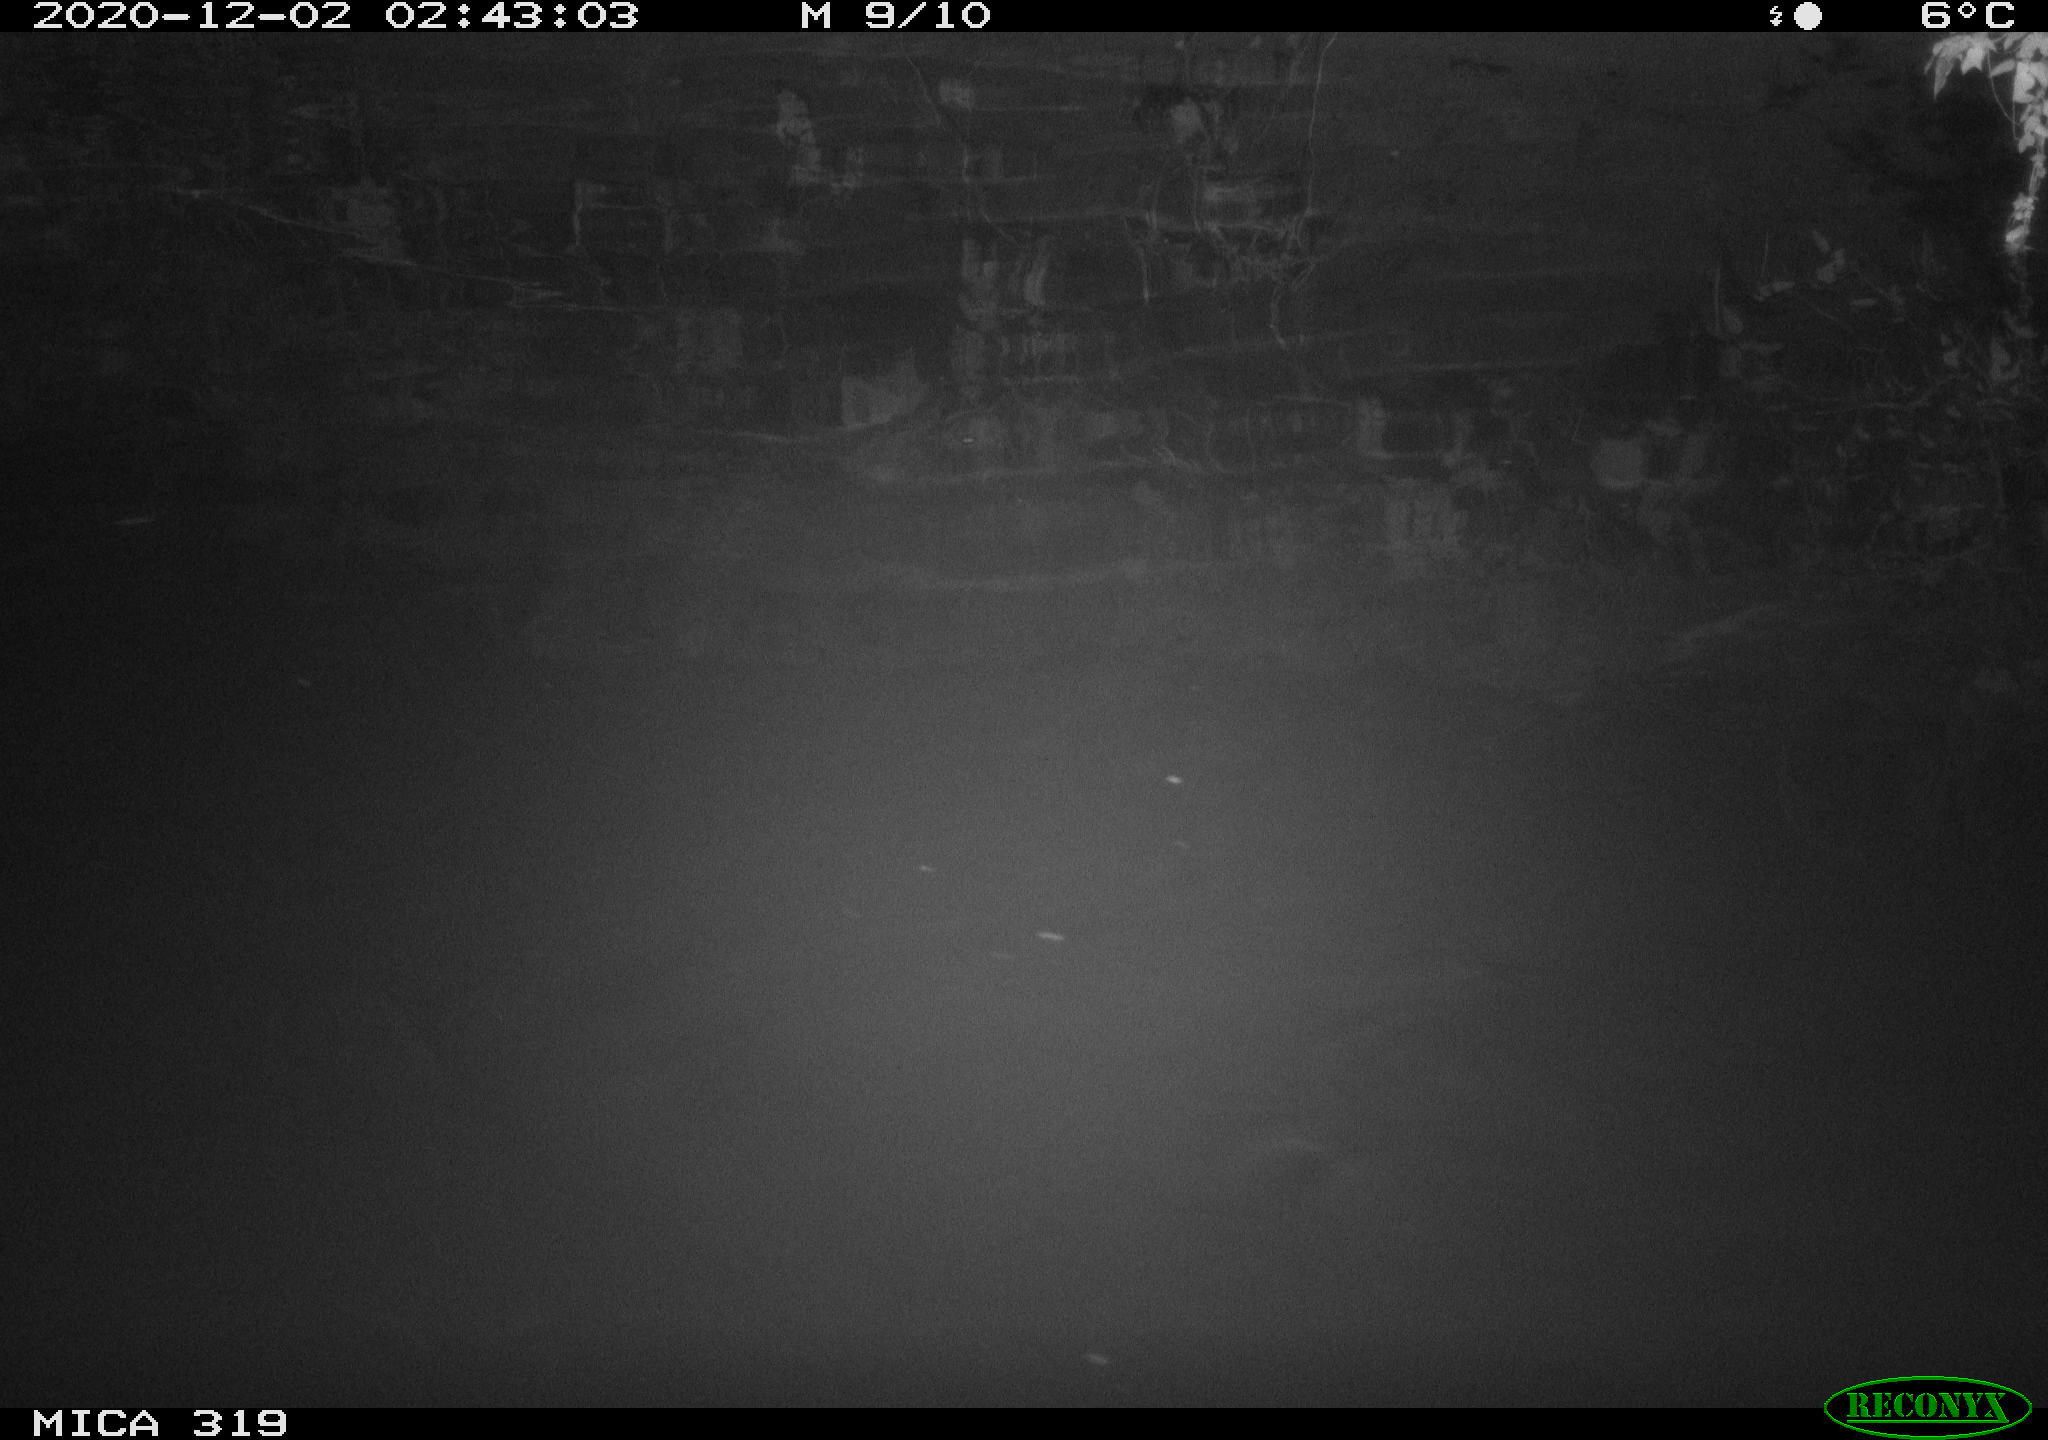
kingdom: Animalia
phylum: Chordata
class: Aves
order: Anseriformes
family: Anatidae
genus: Anas
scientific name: Anas platyrhynchos
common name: Mallard
